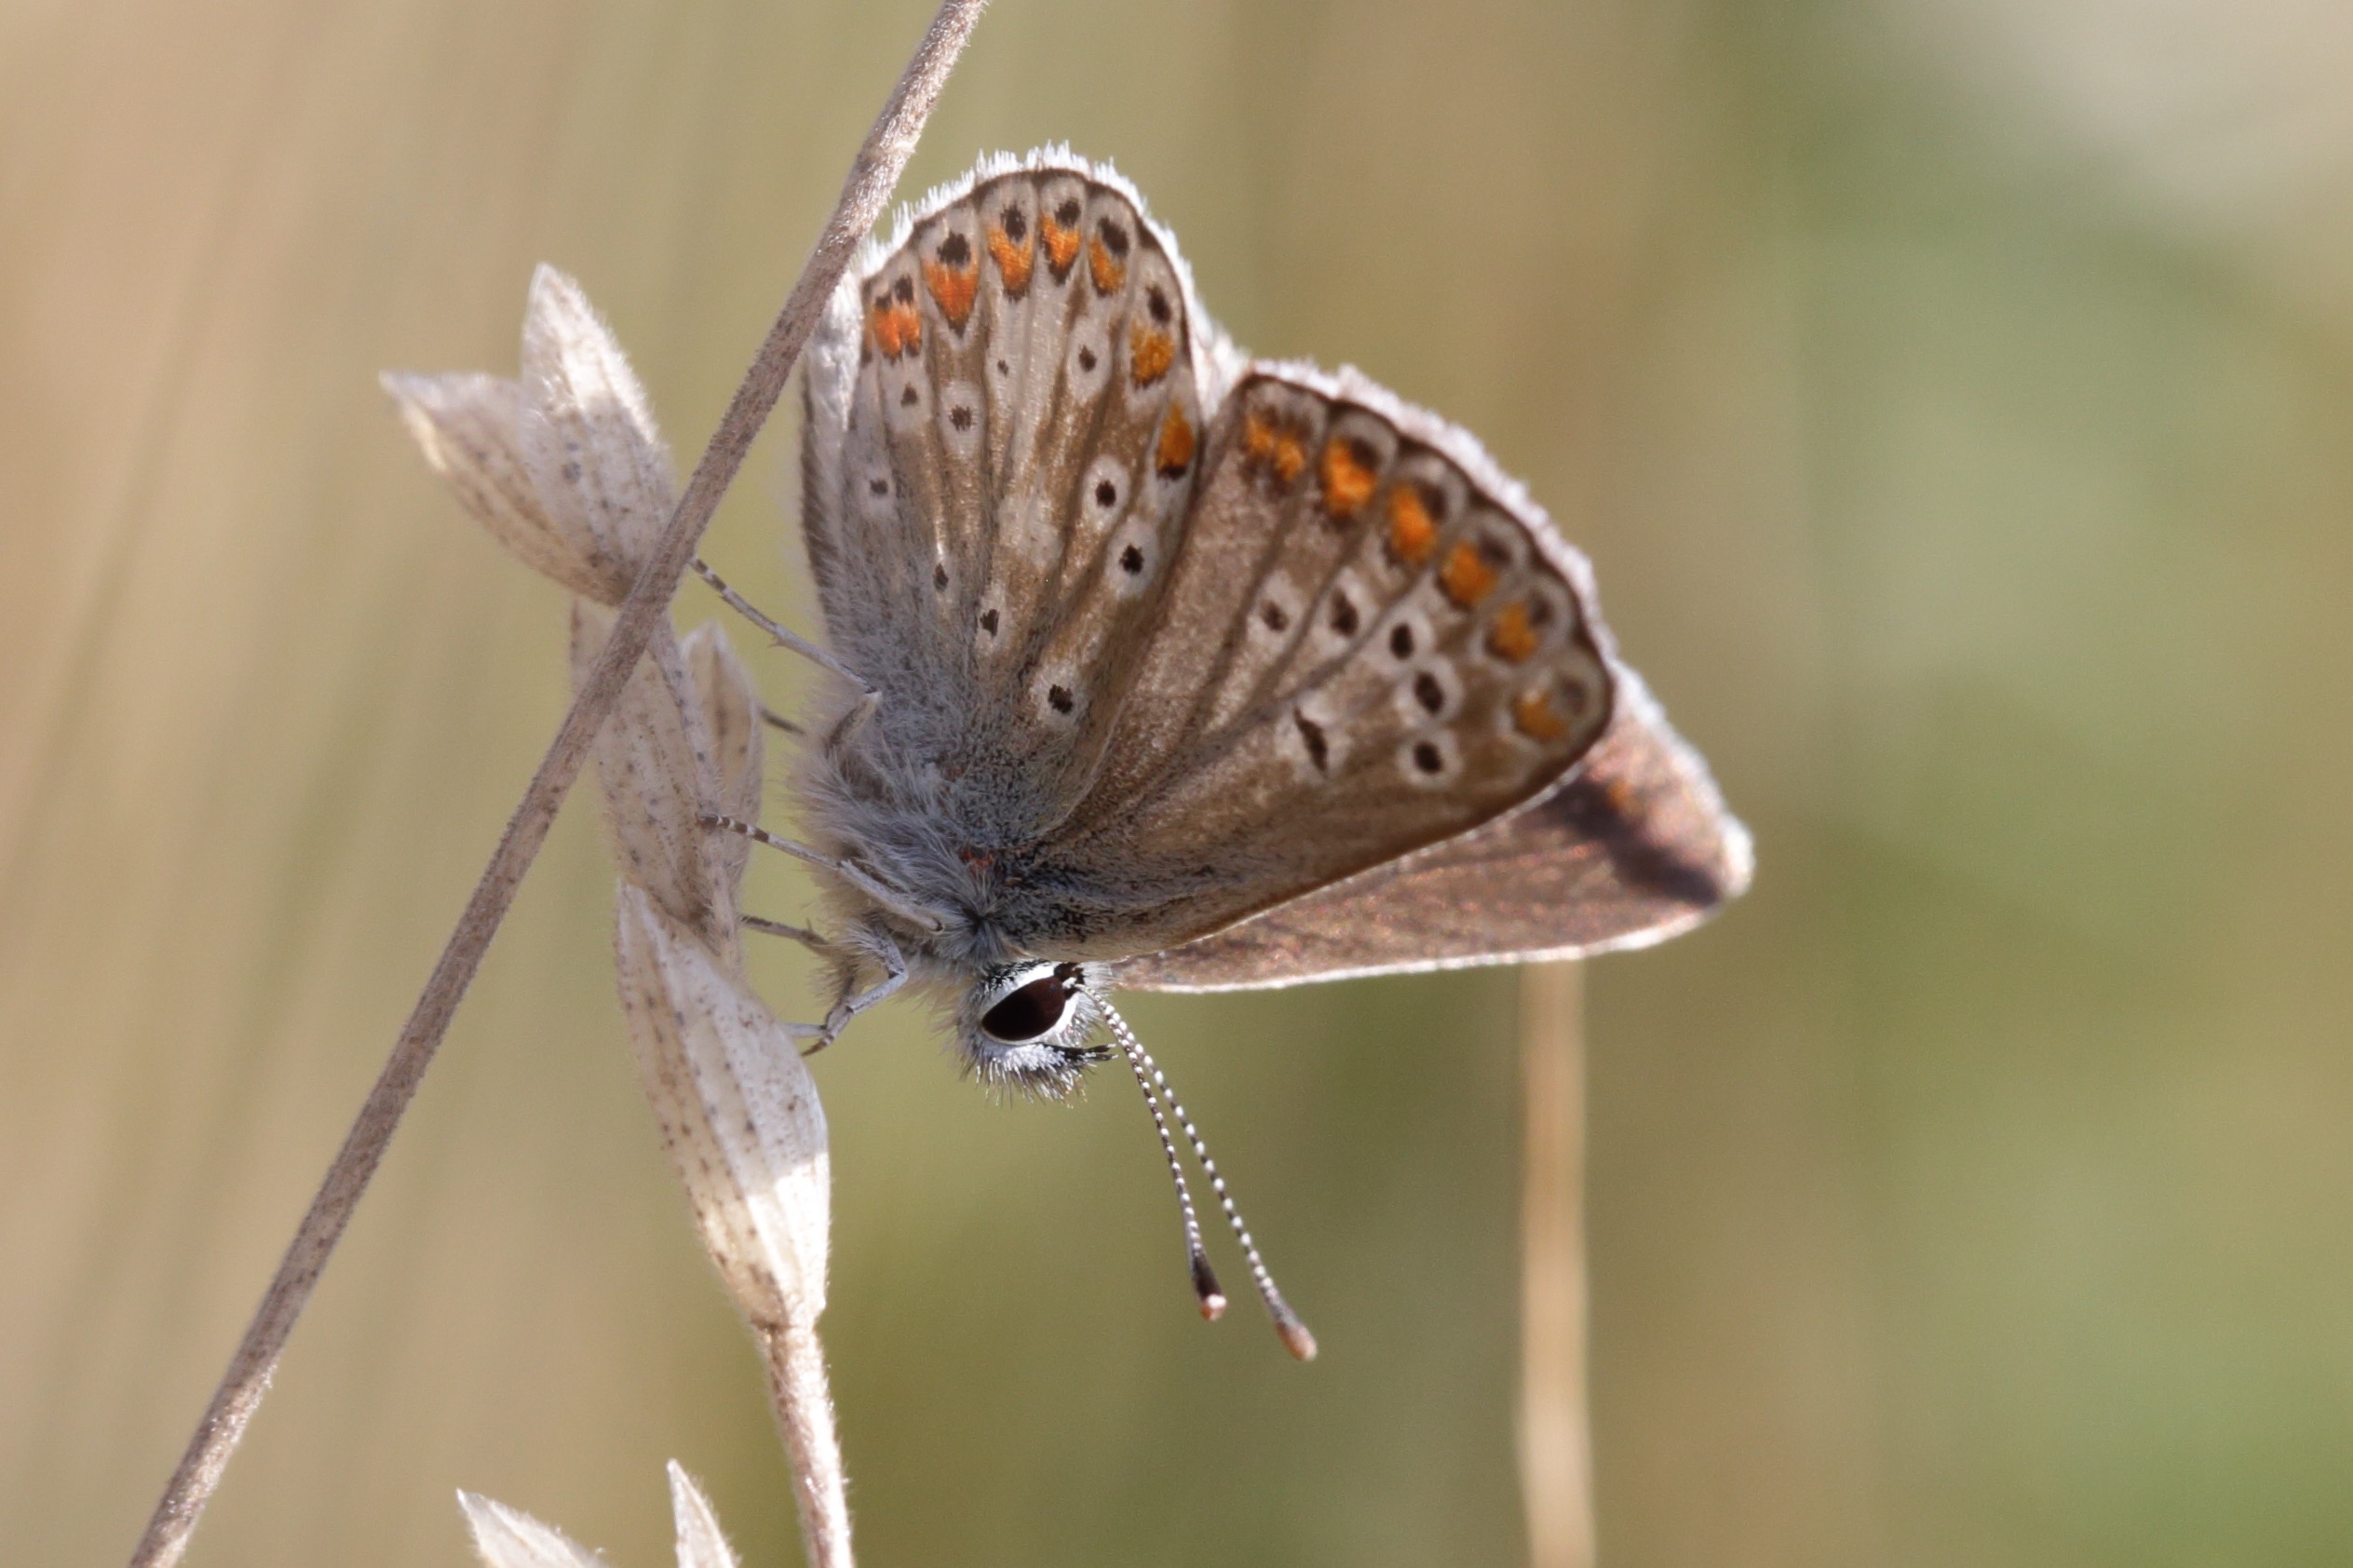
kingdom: Animalia
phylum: Arthropoda
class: Insecta
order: Lepidoptera
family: Lycaenidae
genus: Aricia
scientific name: Aricia agestis
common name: Rødplettet blåfugl
